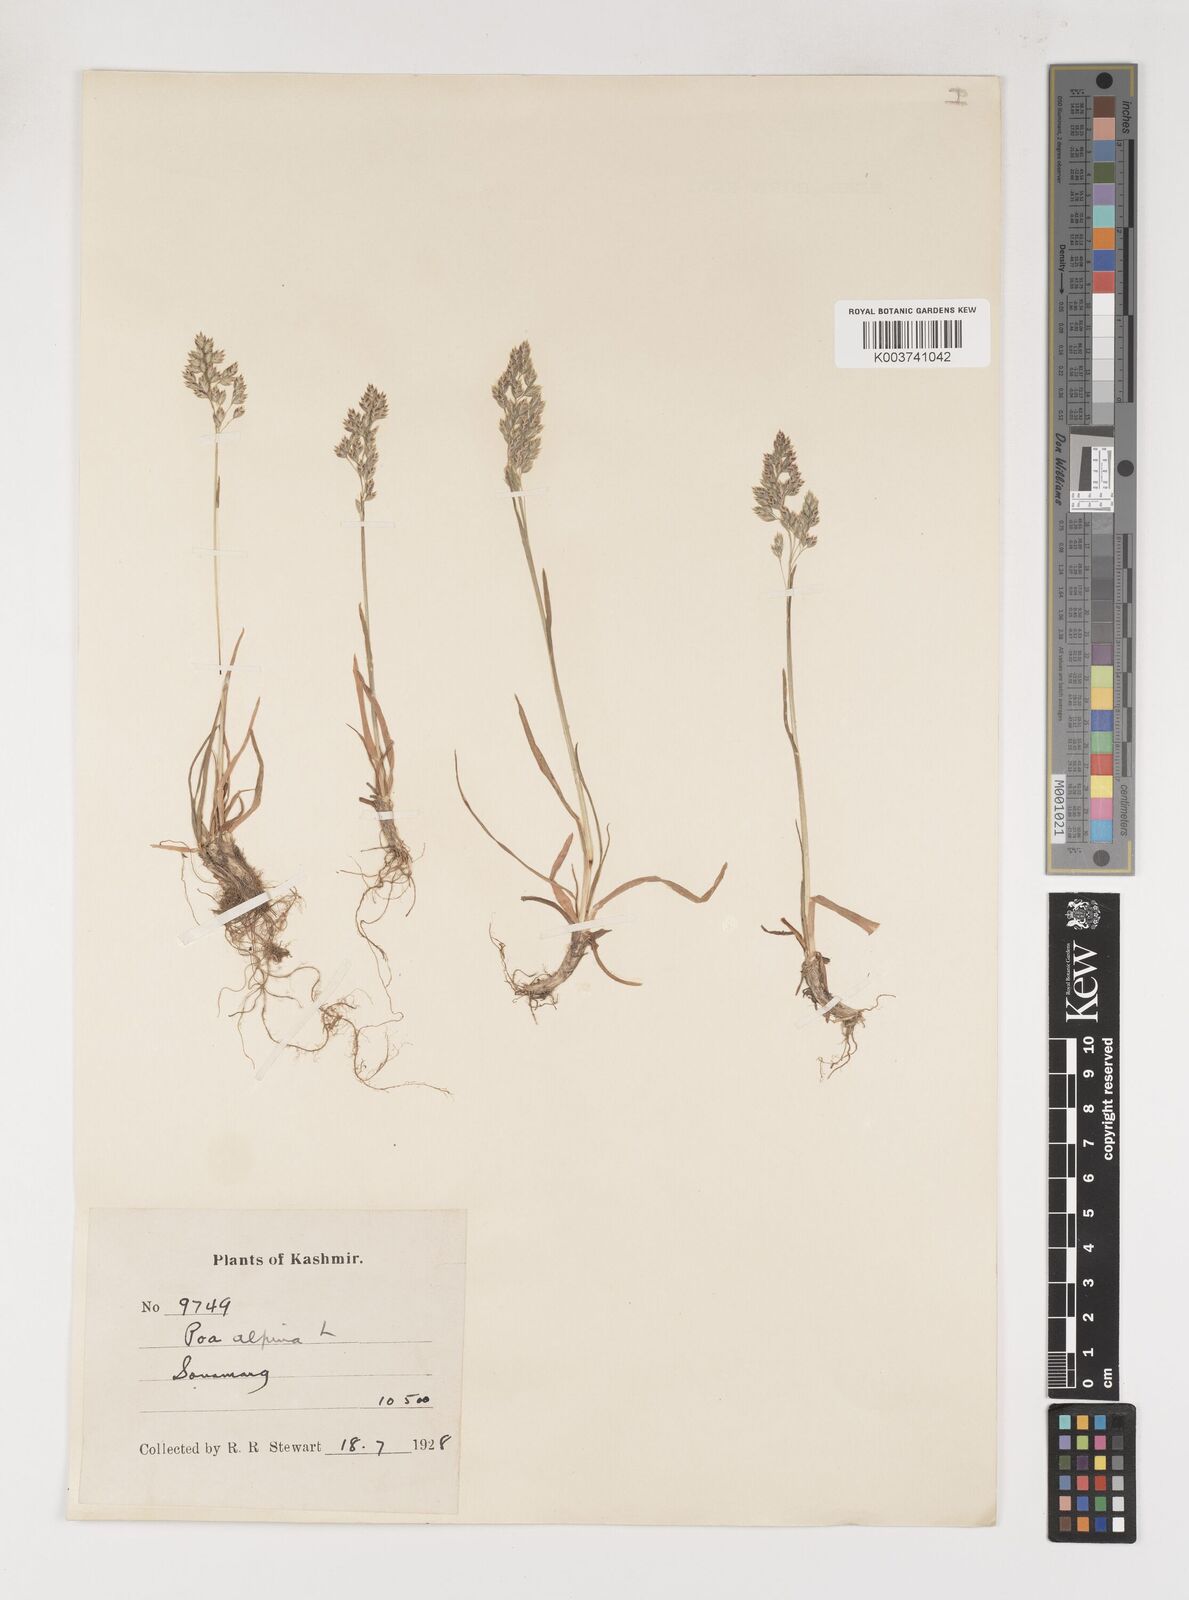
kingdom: Plantae
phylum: Tracheophyta
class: Liliopsida
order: Poales
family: Poaceae
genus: Poa
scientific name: Poa alpina
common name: Alpine bluegrass
